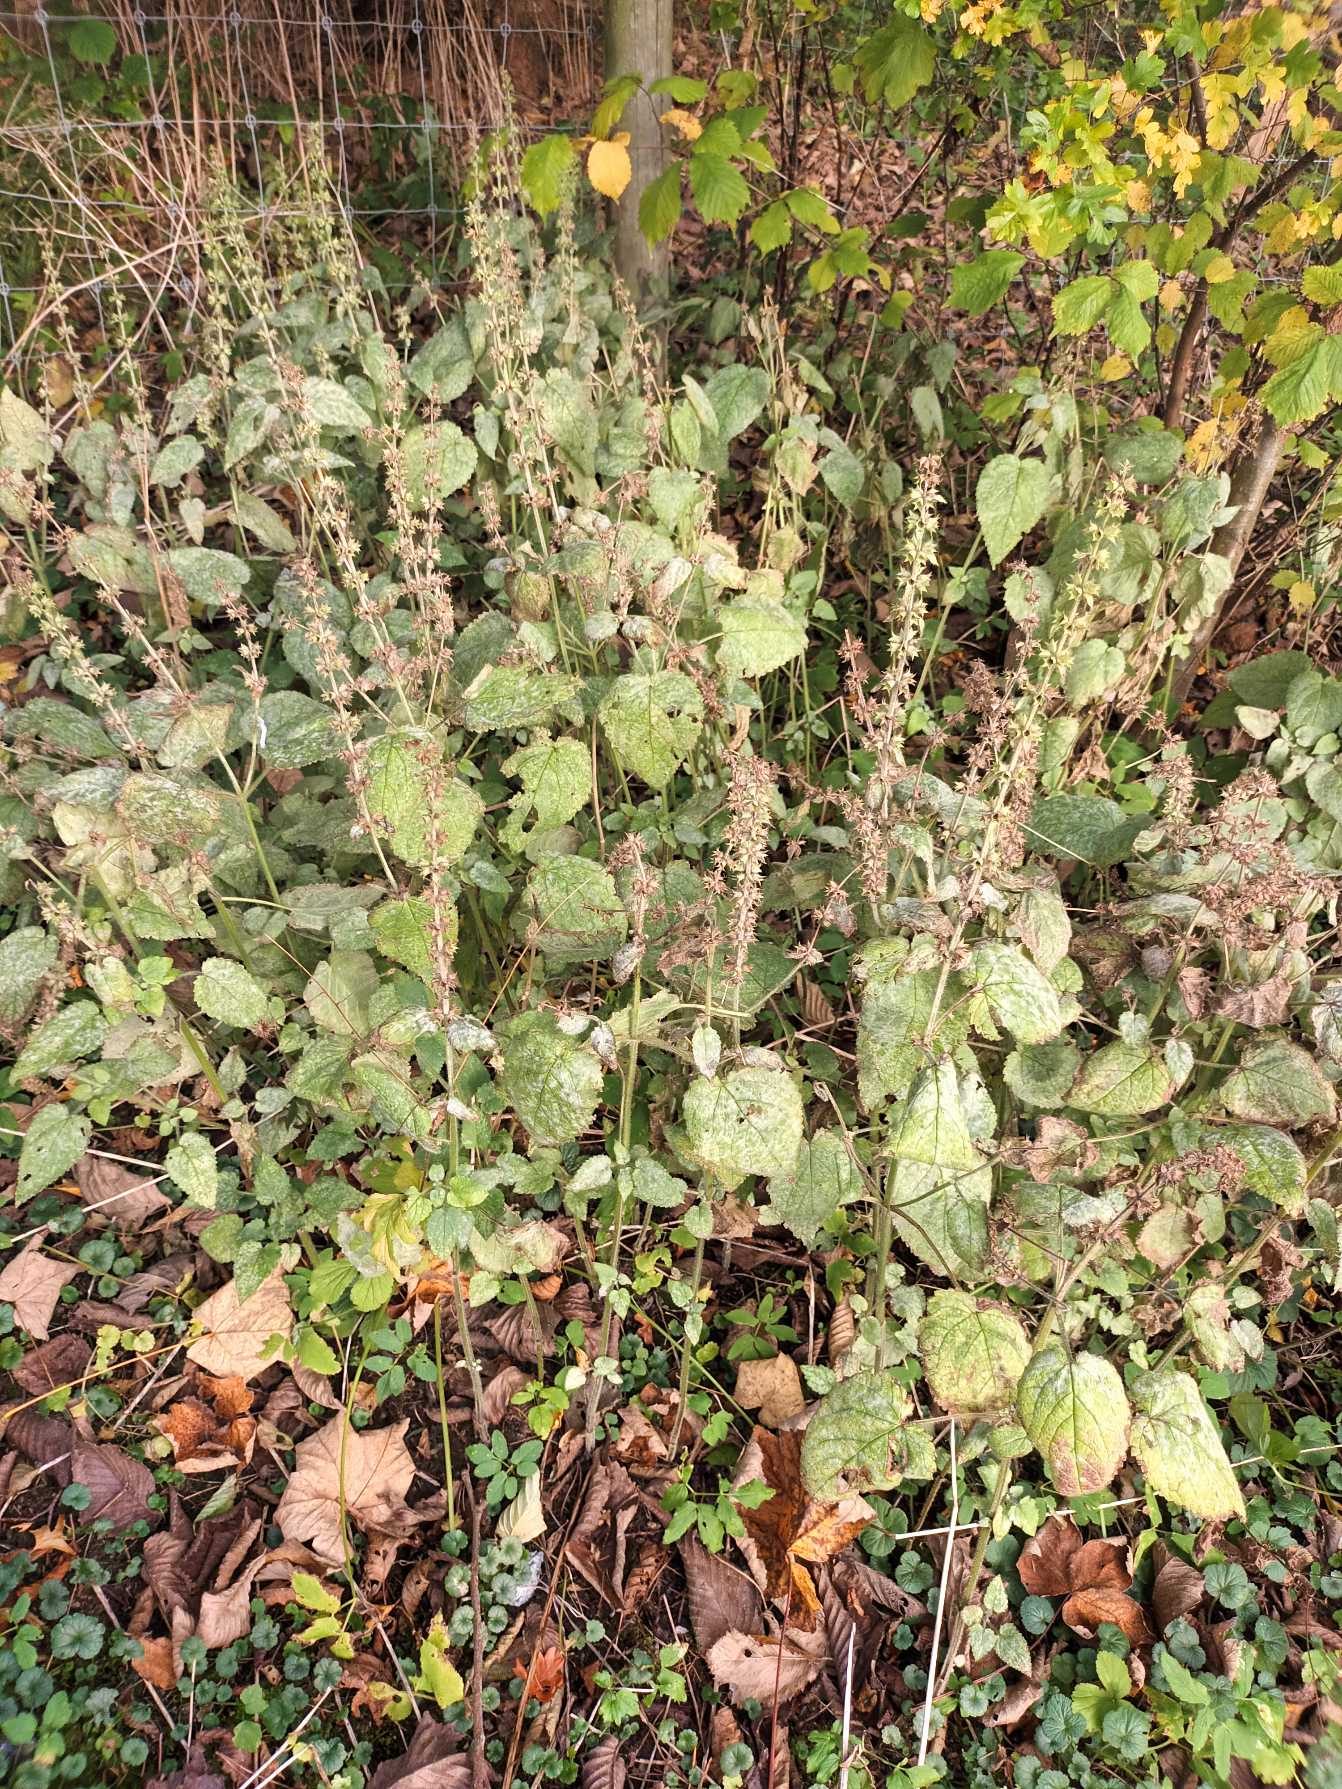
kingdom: Plantae
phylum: Tracheophyta
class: Magnoliopsida
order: Lamiales
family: Lamiaceae
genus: Stachys
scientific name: Stachys sylvatica
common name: Skov-galtetand
